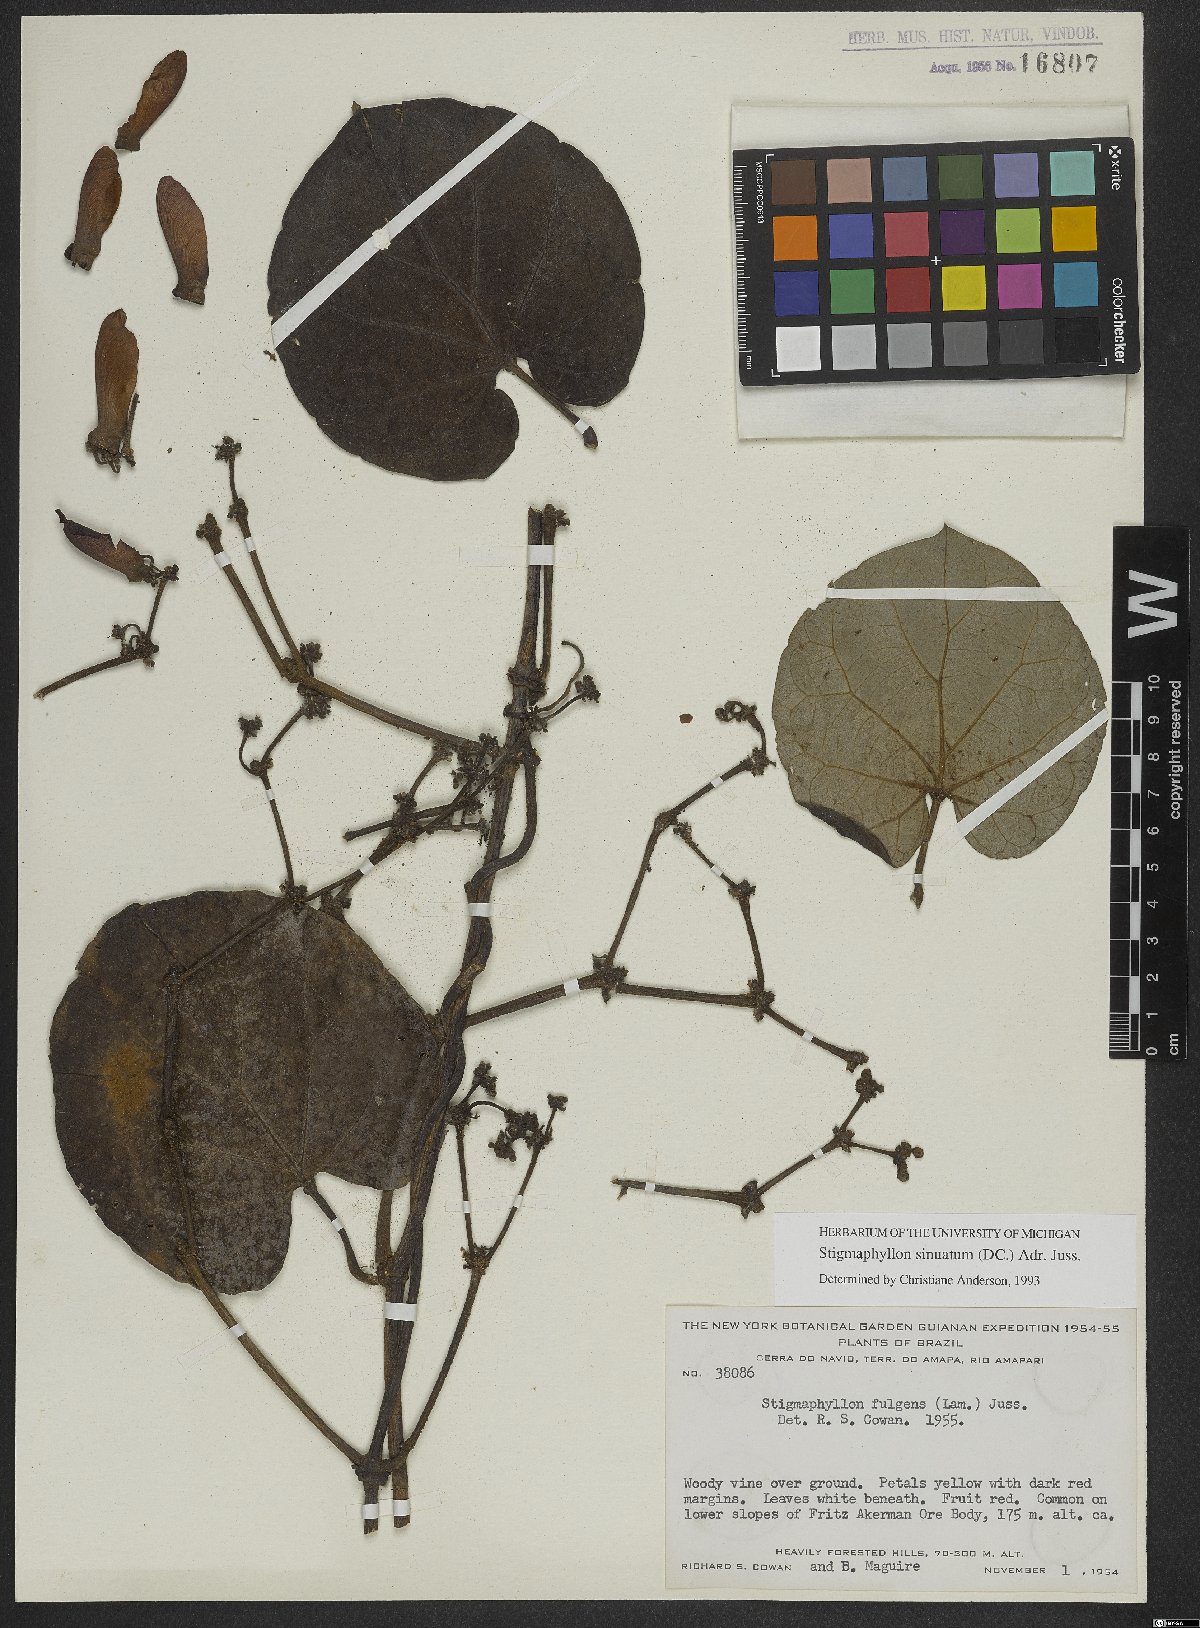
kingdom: Plantae
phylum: Tracheophyta
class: Magnoliopsida
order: Malpighiales
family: Malpighiaceae
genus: Stigmaphyllon
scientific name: Stigmaphyllon sinuatum
